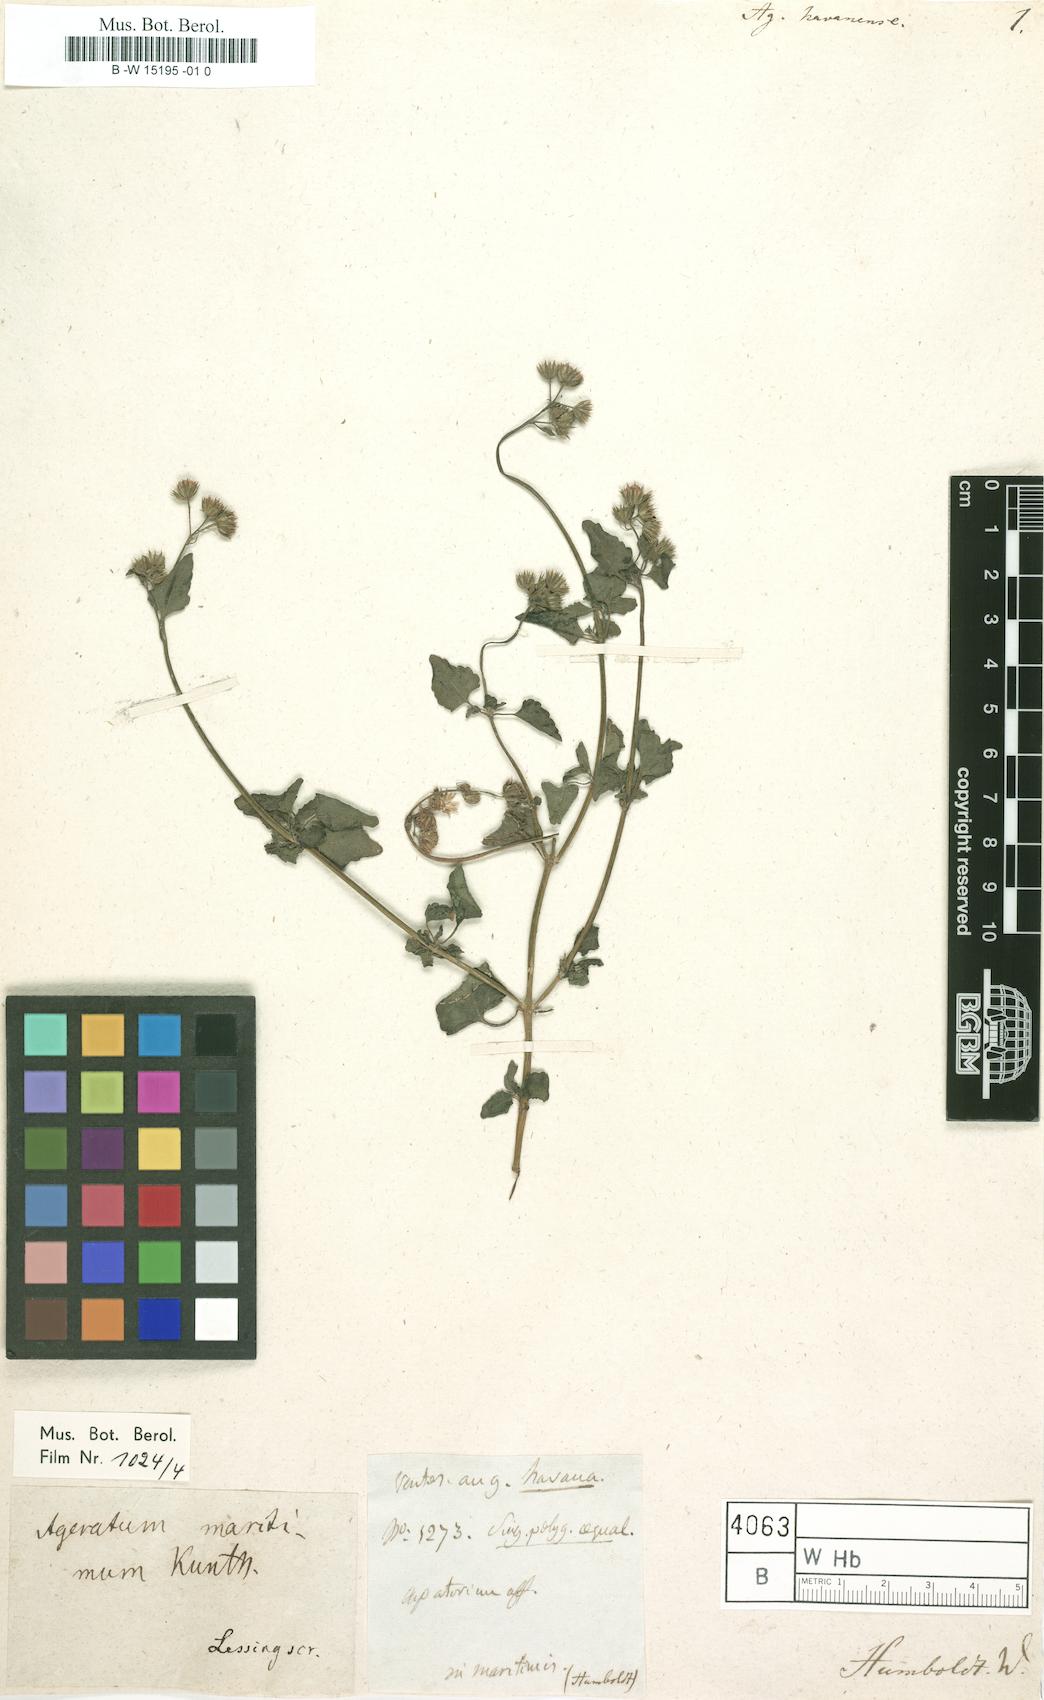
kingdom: Plantae
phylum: Tracheophyta
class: Magnoliopsida
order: Asterales
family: Asteraceae
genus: Ageratum
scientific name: Ageratum
